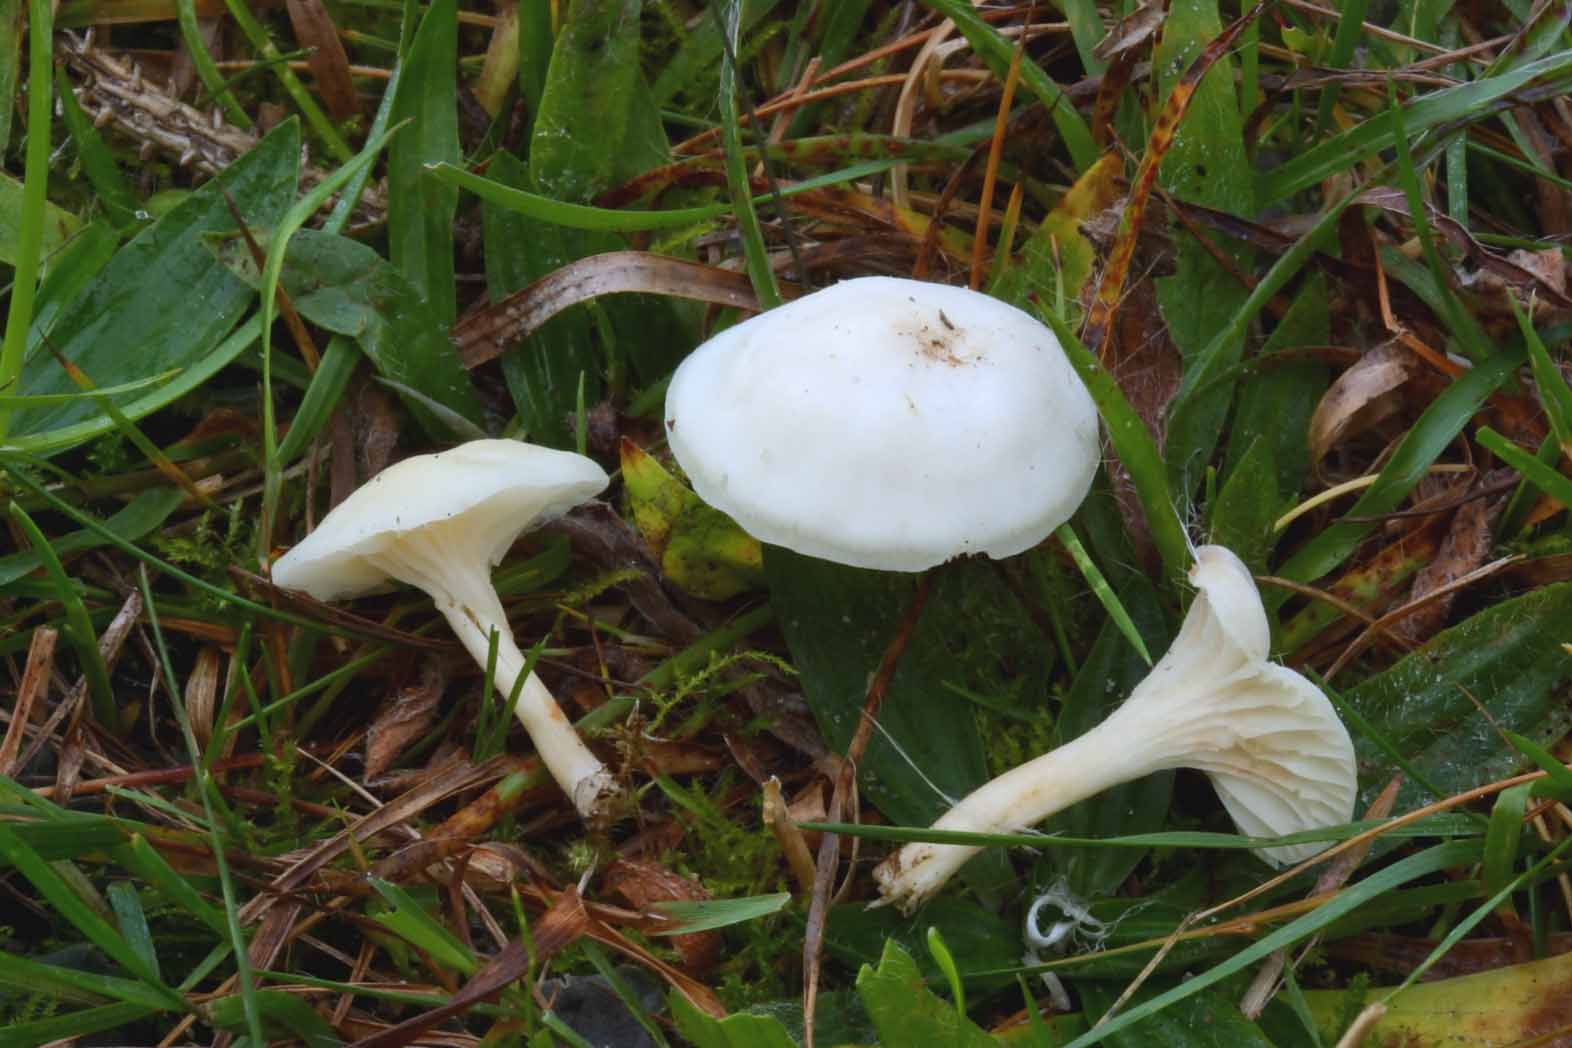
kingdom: Fungi
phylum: Basidiomycota
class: Agaricomycetes
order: Agaricales
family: Hygrophoraceae
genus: Cuphophyllus
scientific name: Cuphophyllus virgineus
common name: snehvid vokshat
